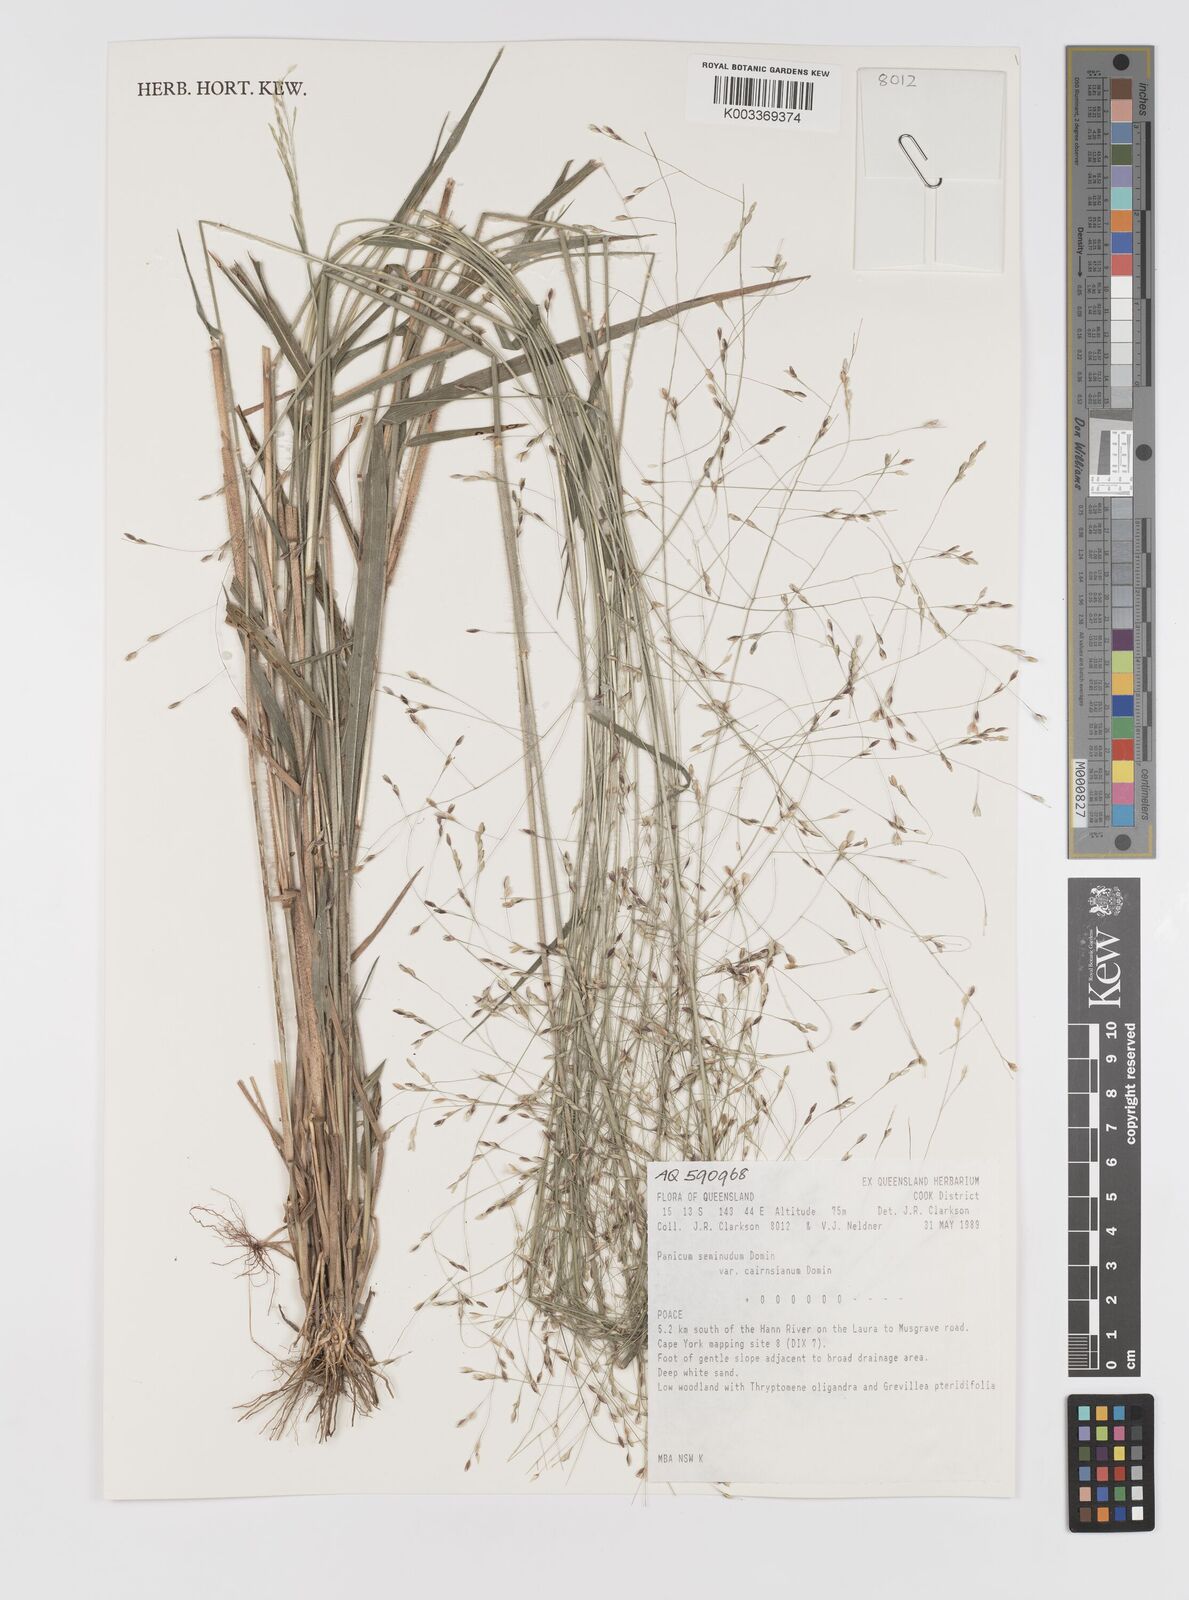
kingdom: Plantae
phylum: Tracheophyta
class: Liliopsida
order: Poales
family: Poaceae
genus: Panicum
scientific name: Panicum seminudum
